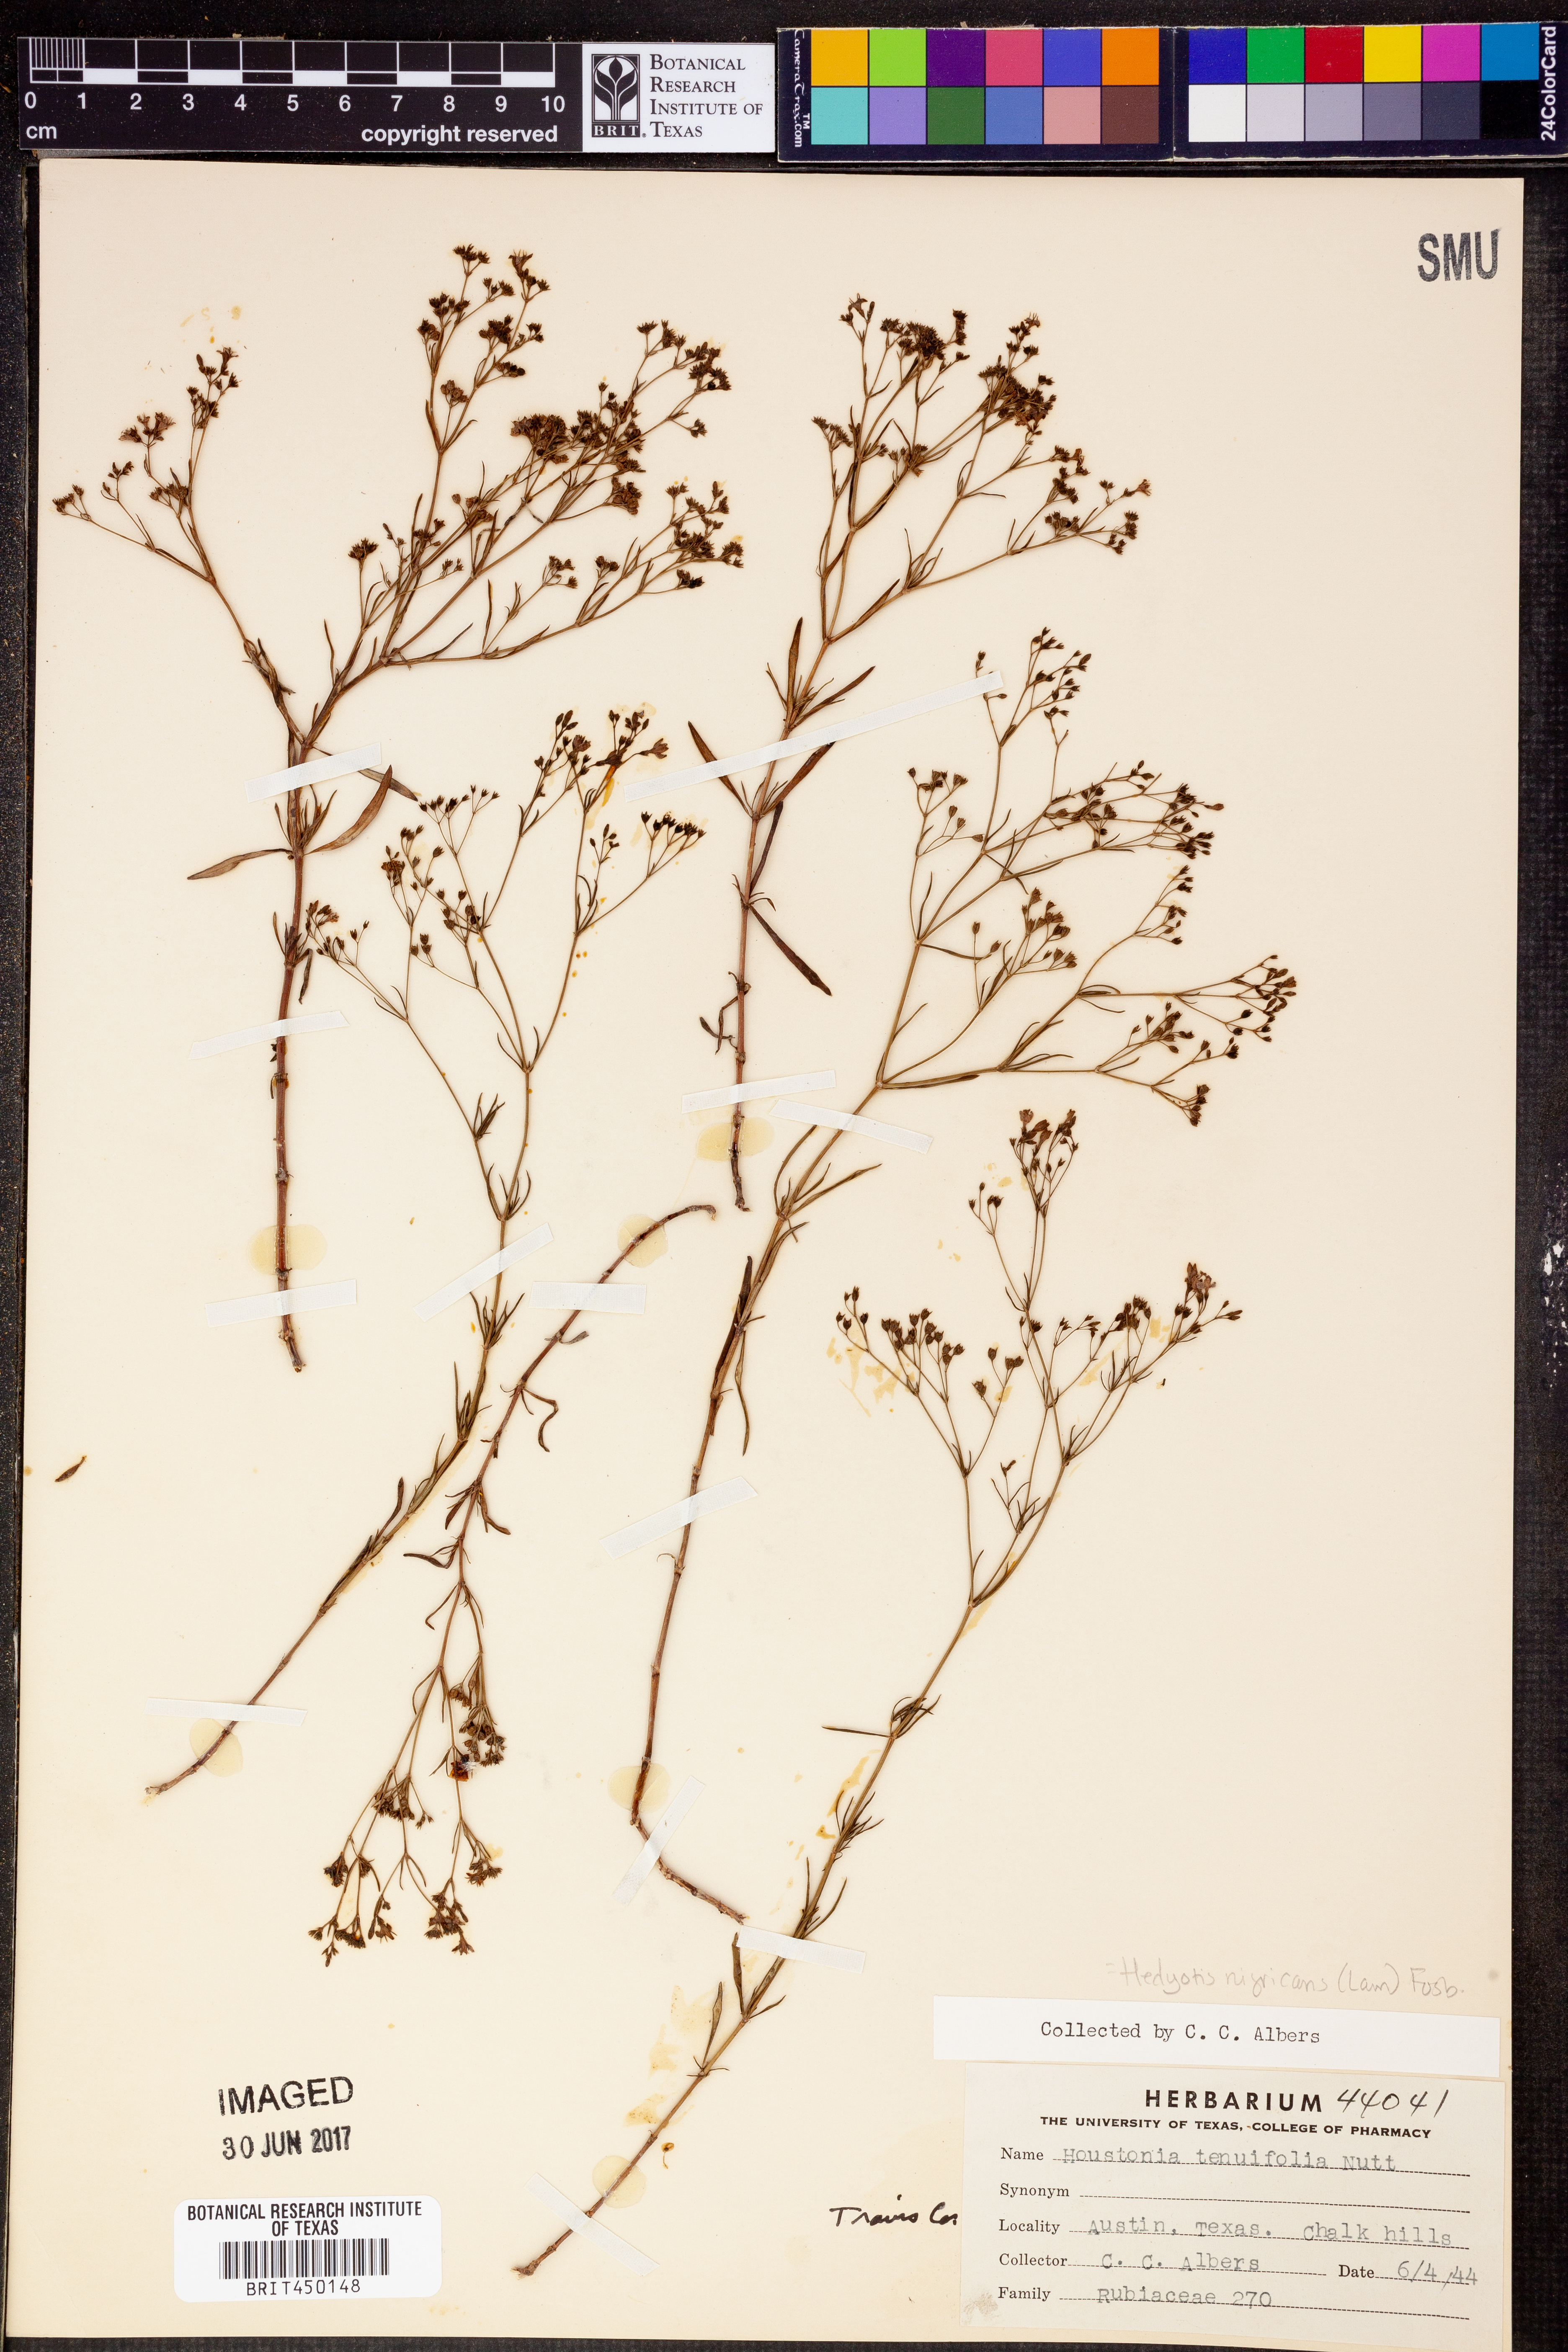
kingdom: Plantae
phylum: Tracheophyta
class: Magnoliopsida
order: Gentianales
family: Rubiaceae
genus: Stenaria
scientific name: Stenaria nigricans
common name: Diamondflowers
